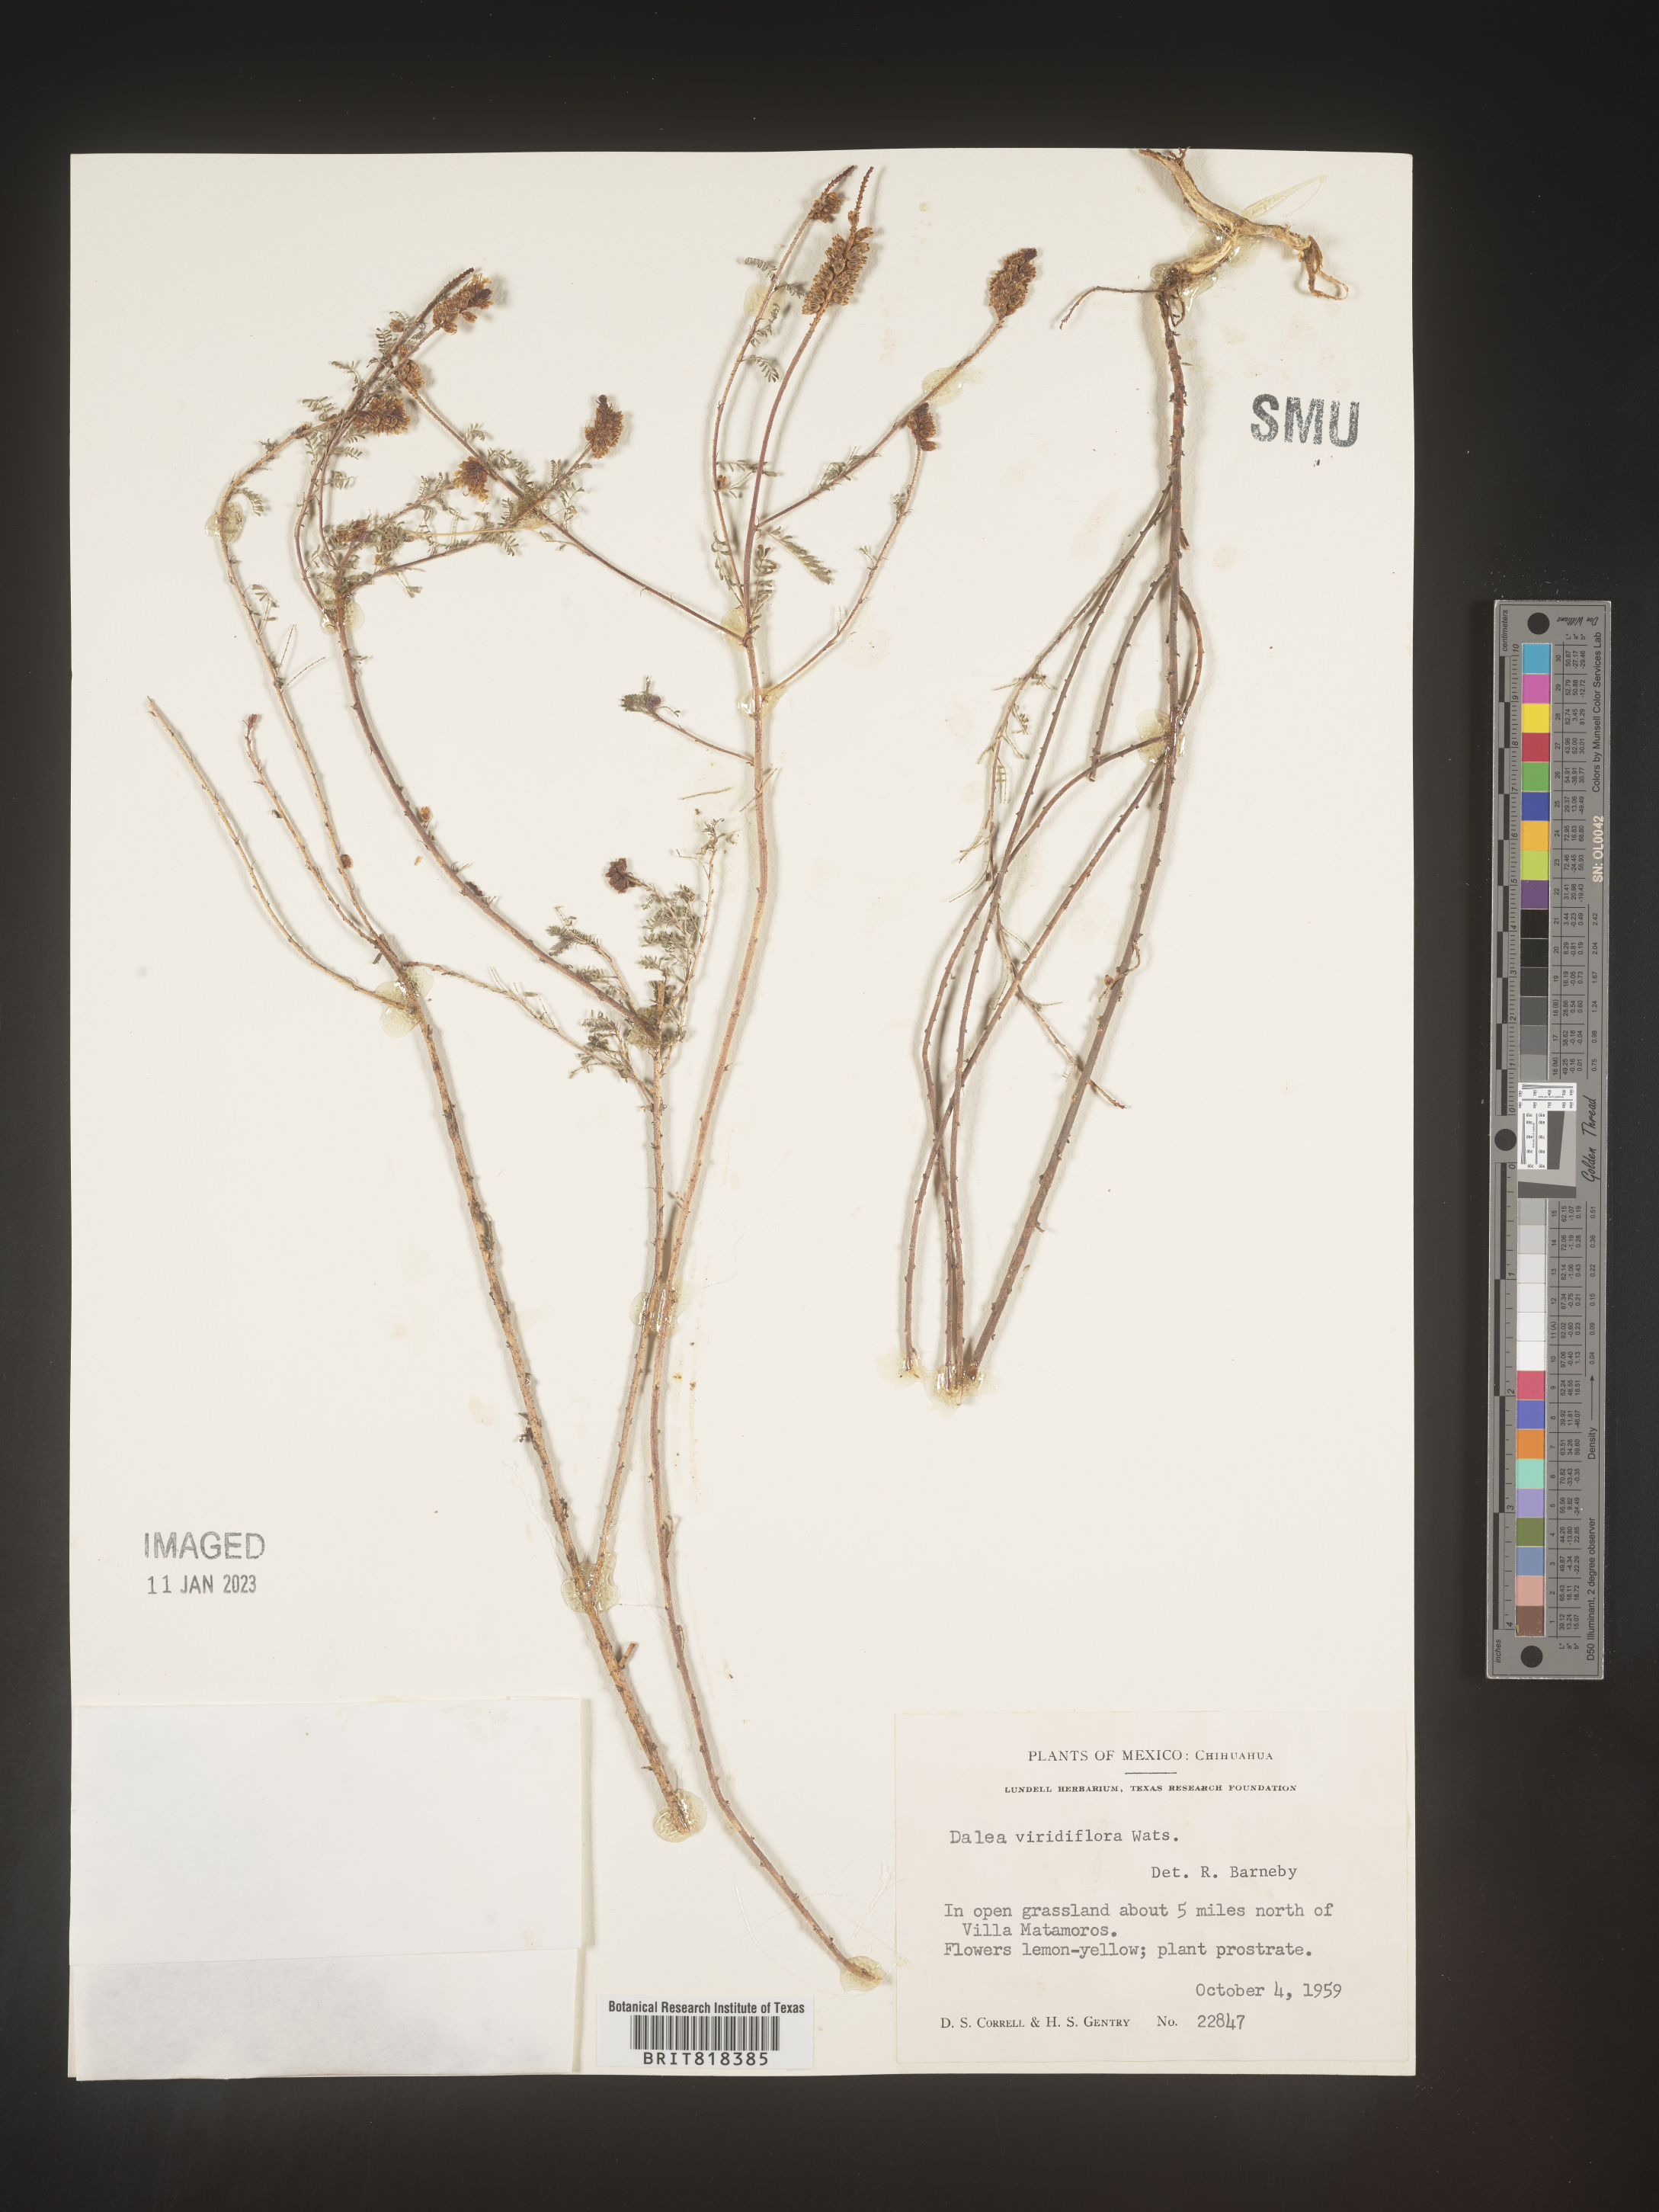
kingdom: Plantae
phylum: Tracheophyta
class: Magnoliopsida
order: Fabales
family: Fabaceae
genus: Dalea
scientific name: Dalea
